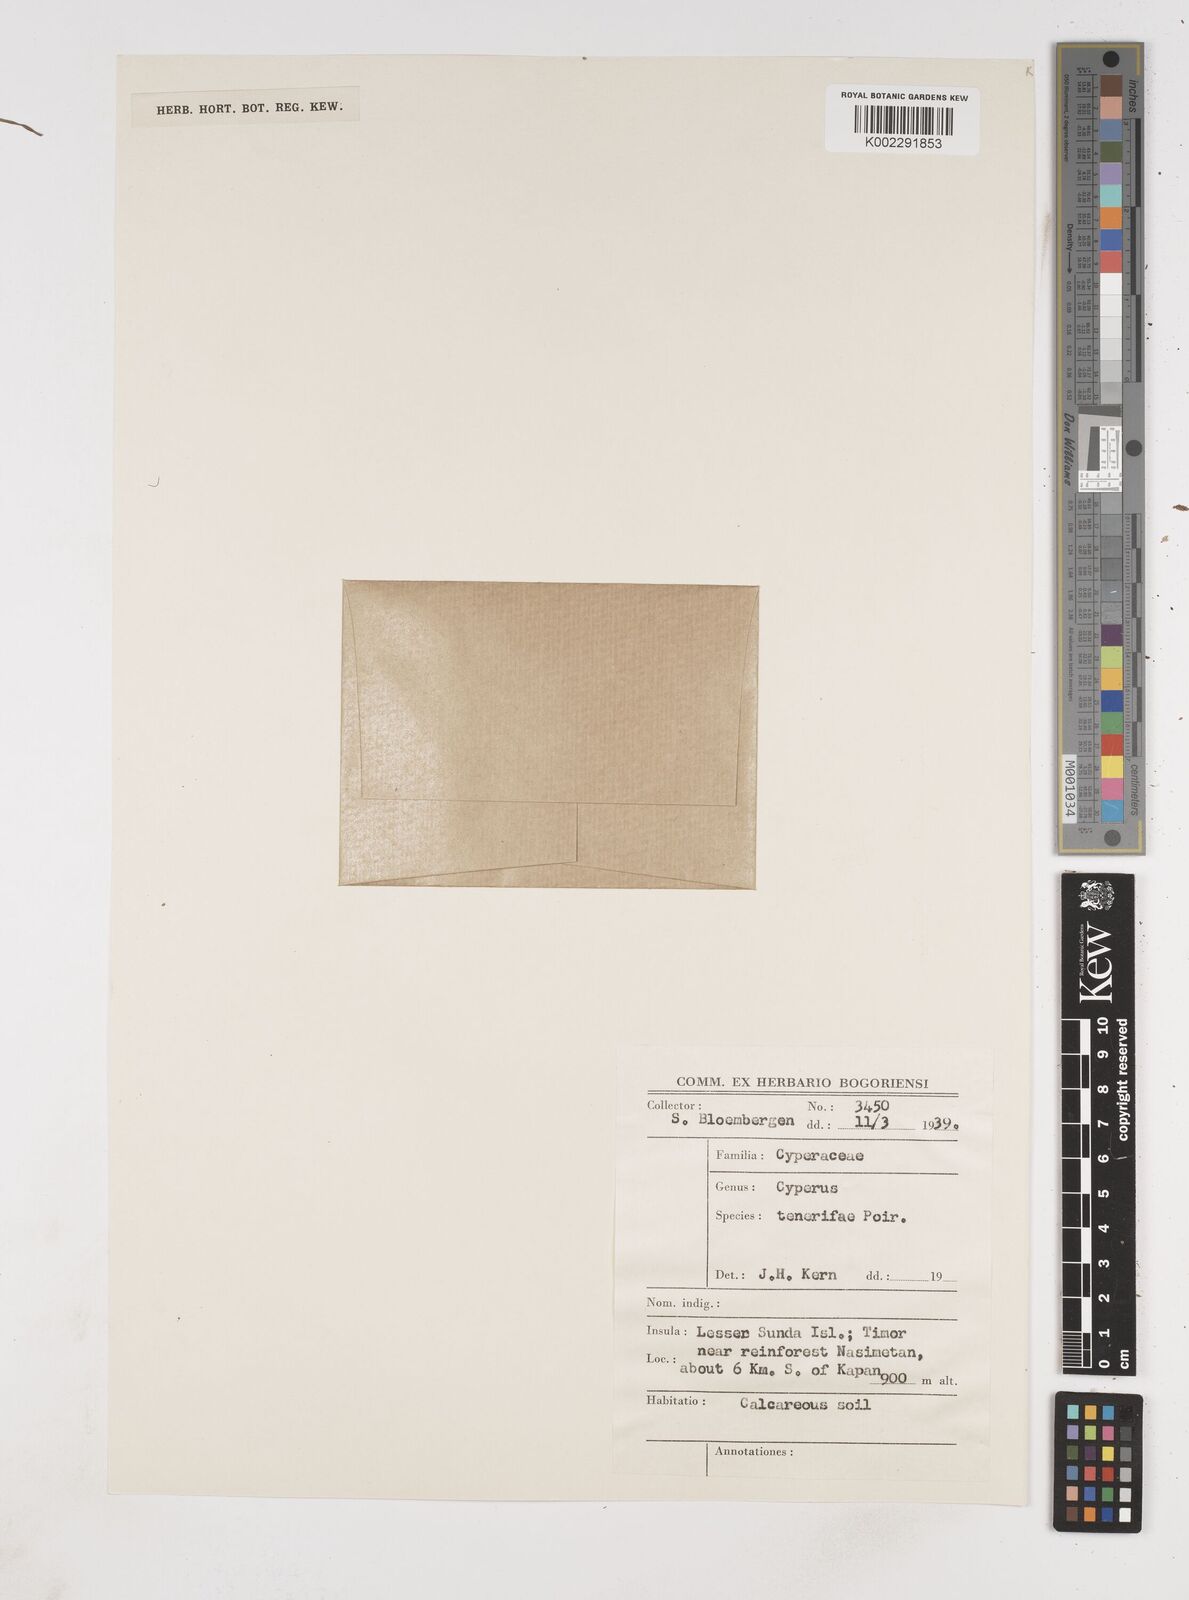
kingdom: Plantae
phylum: Tracheophyta
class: Liliopsida
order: Poales
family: Cyperaceae
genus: Cyperus
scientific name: Cyperus rubicundus
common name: Coco-grass
